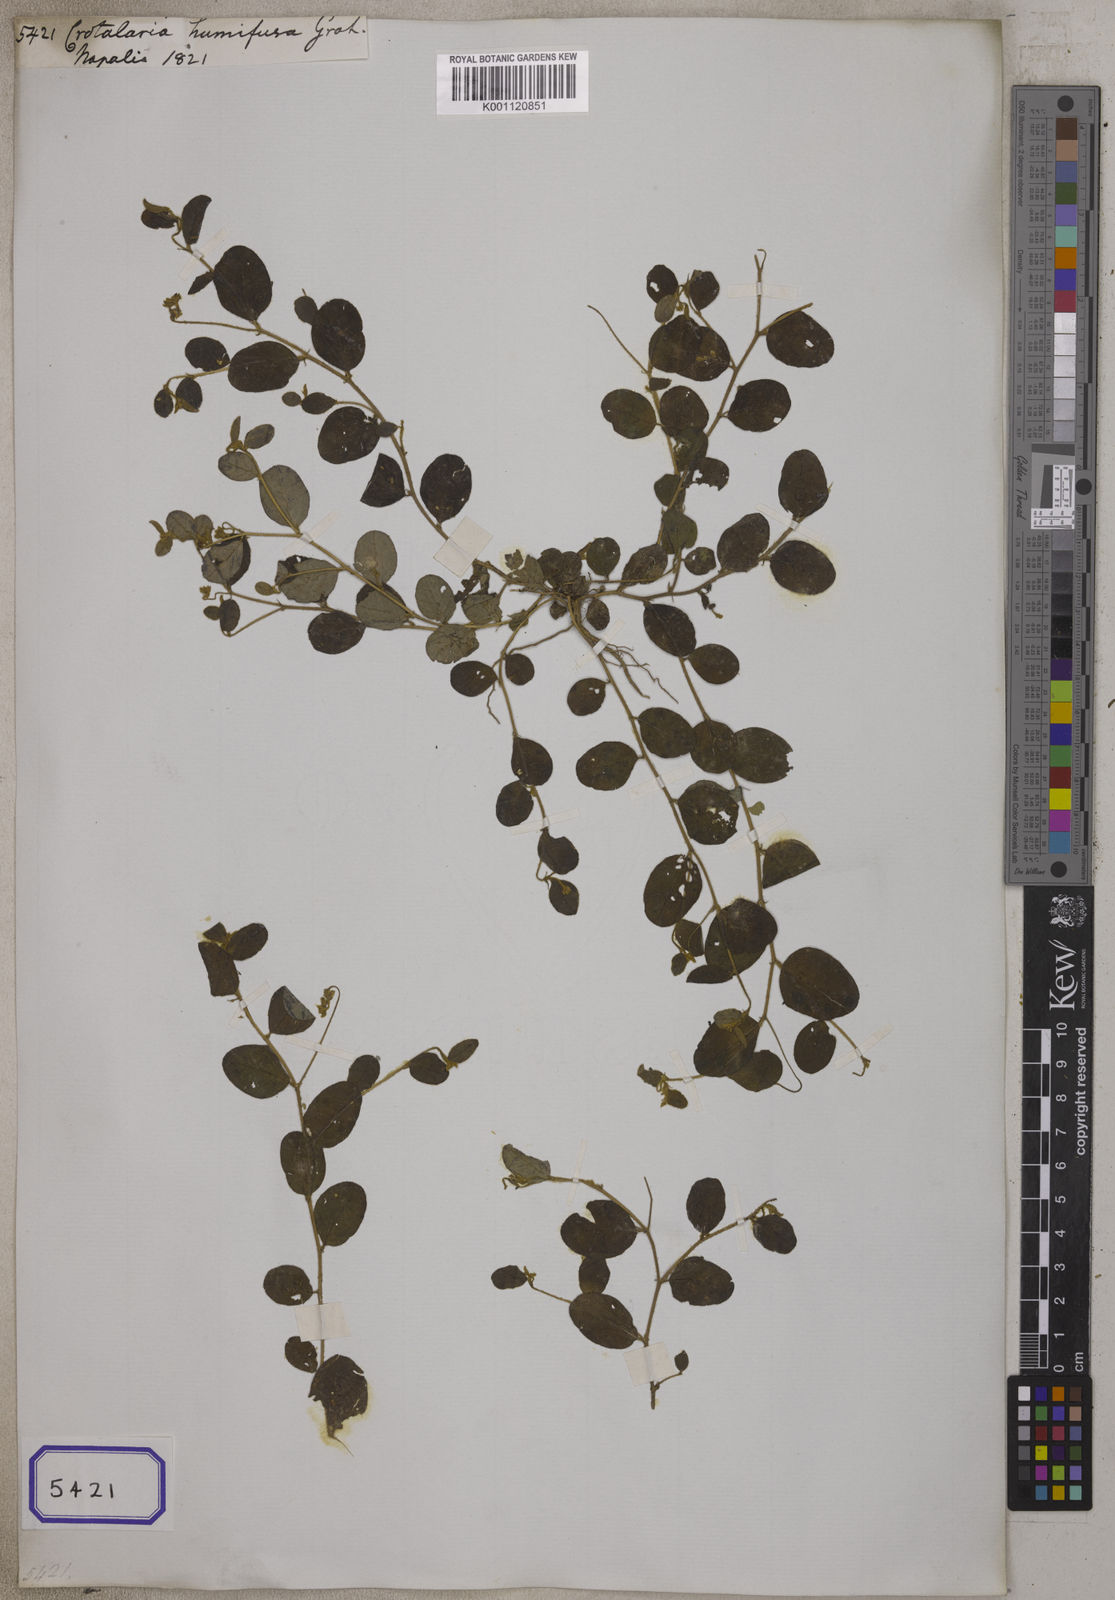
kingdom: Plantae
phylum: Tracheophyta
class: Magnoliopsida
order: Fabales
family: Fabaceae
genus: Crotalaria
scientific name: Crotalaria
